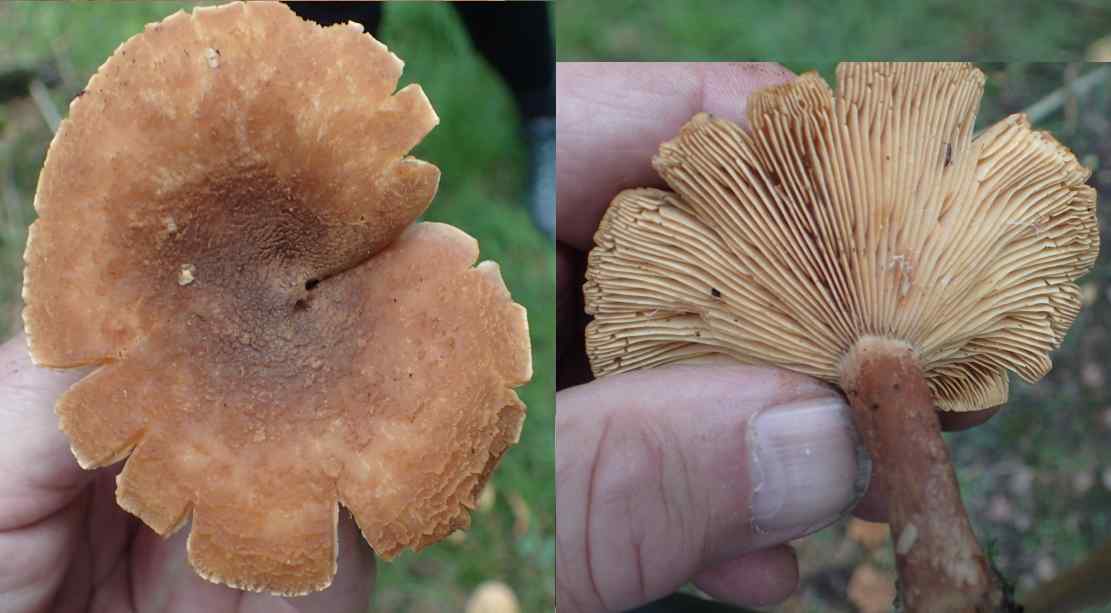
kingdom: Fungi
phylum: Basidiomycota
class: Agaricomycetes
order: Russulales
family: Russulaceae
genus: Lactarius
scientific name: Lactarius helvus
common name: mose-mælkehat
